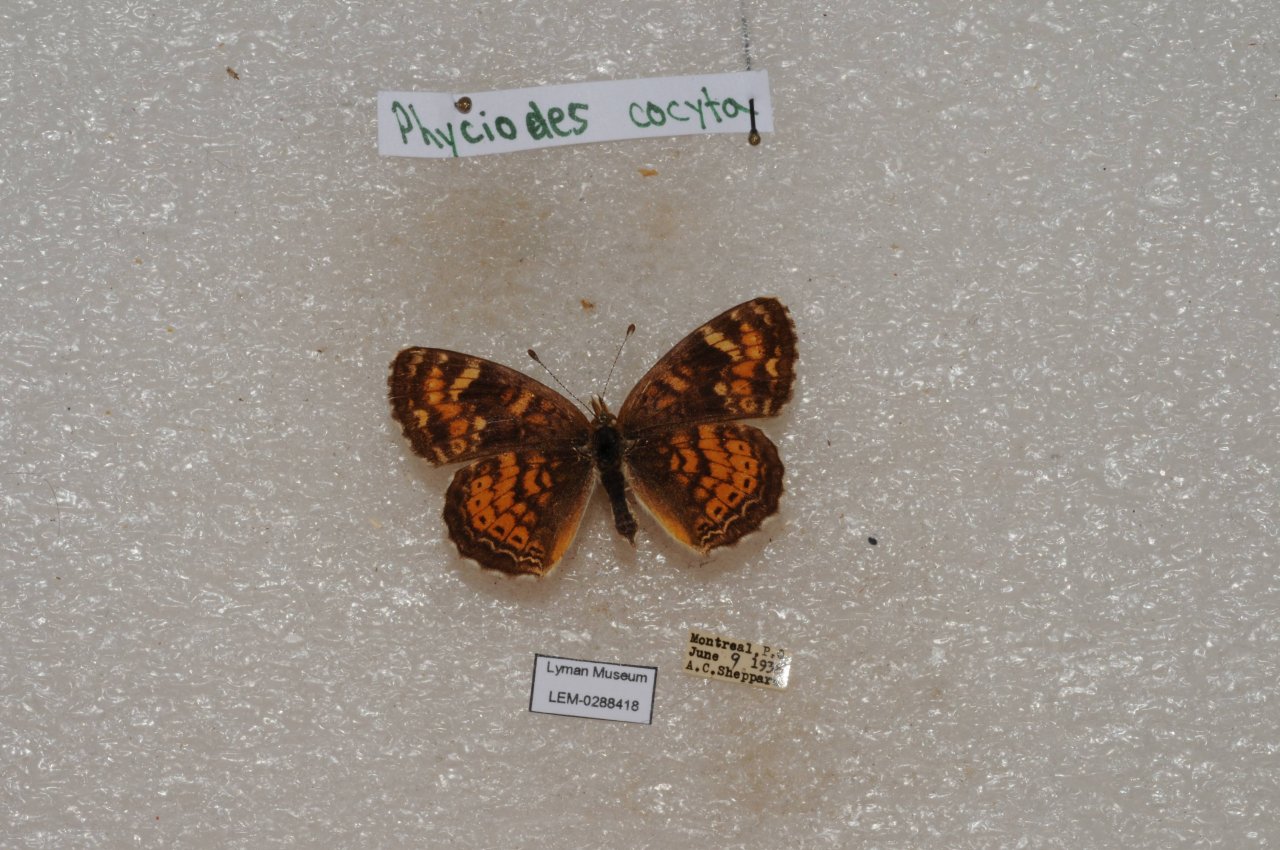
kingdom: Animalia
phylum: Arthropoda
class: Insecta
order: Lepidoptera
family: Nymphalidae
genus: Phyciodes
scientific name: Phyciodes tharos
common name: Northern Crescent
